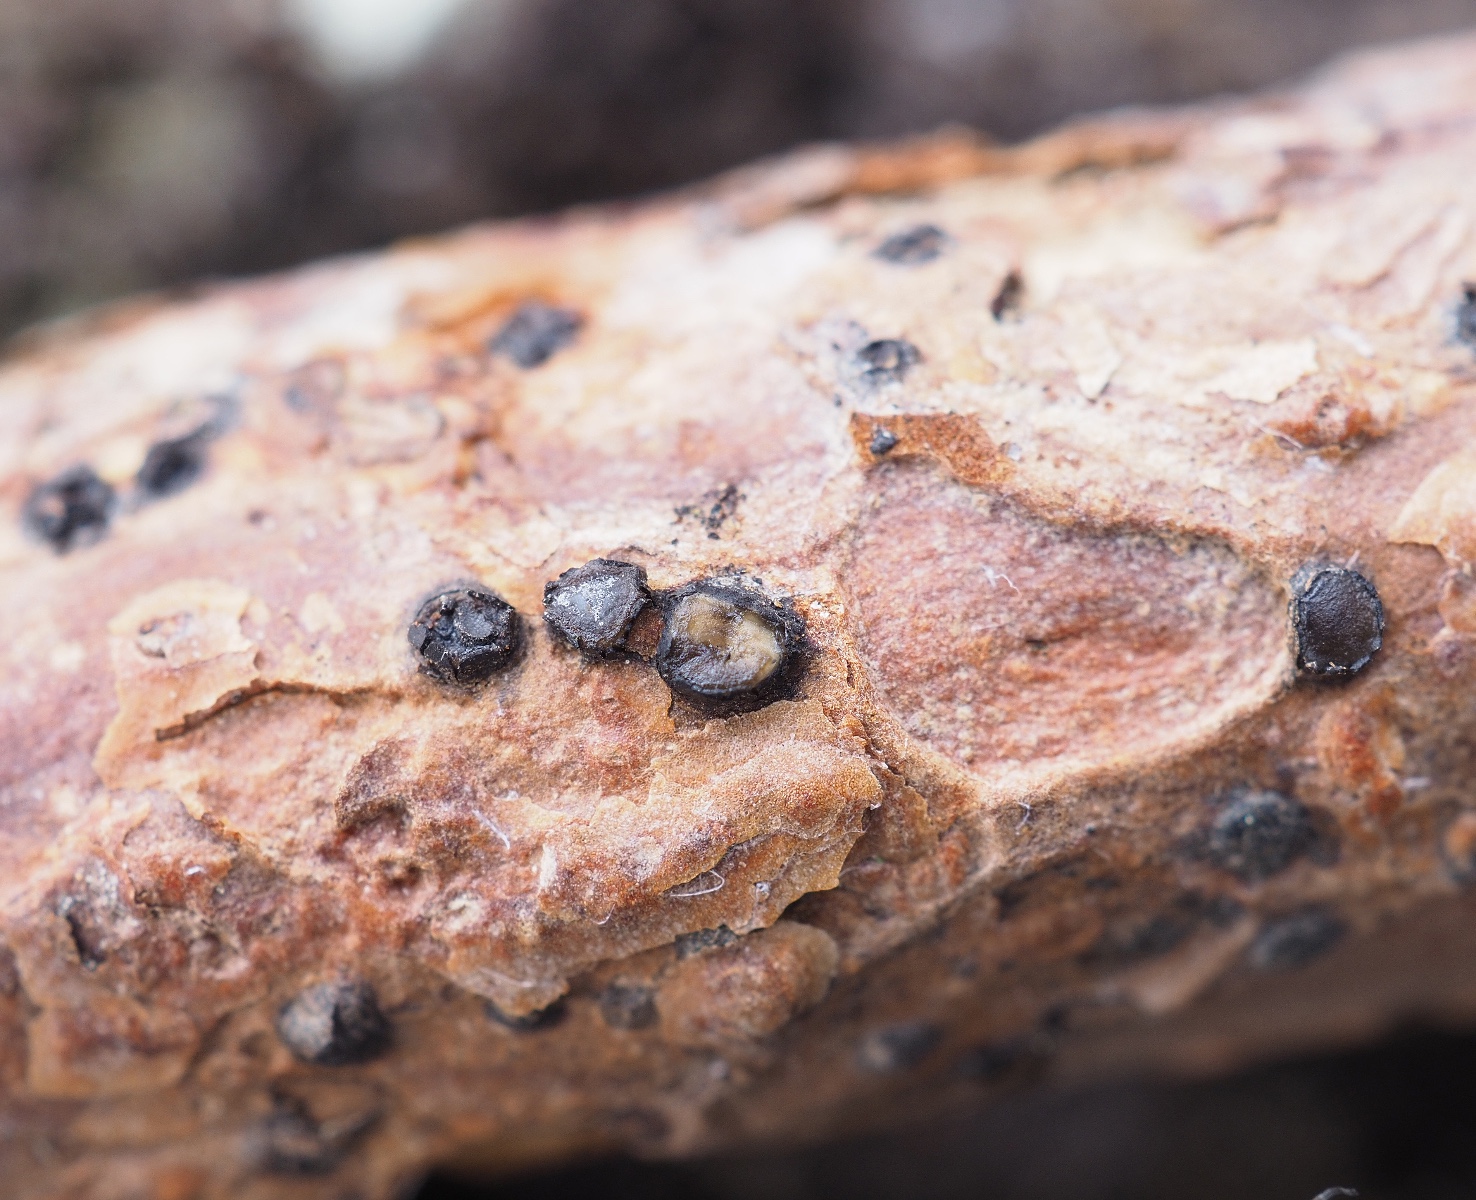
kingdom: Fungi
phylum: Ascomycota
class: Leotiomycetes
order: Rhytismatales
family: Rhytismataceae
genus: Therrya
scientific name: Therrya fuckelii
